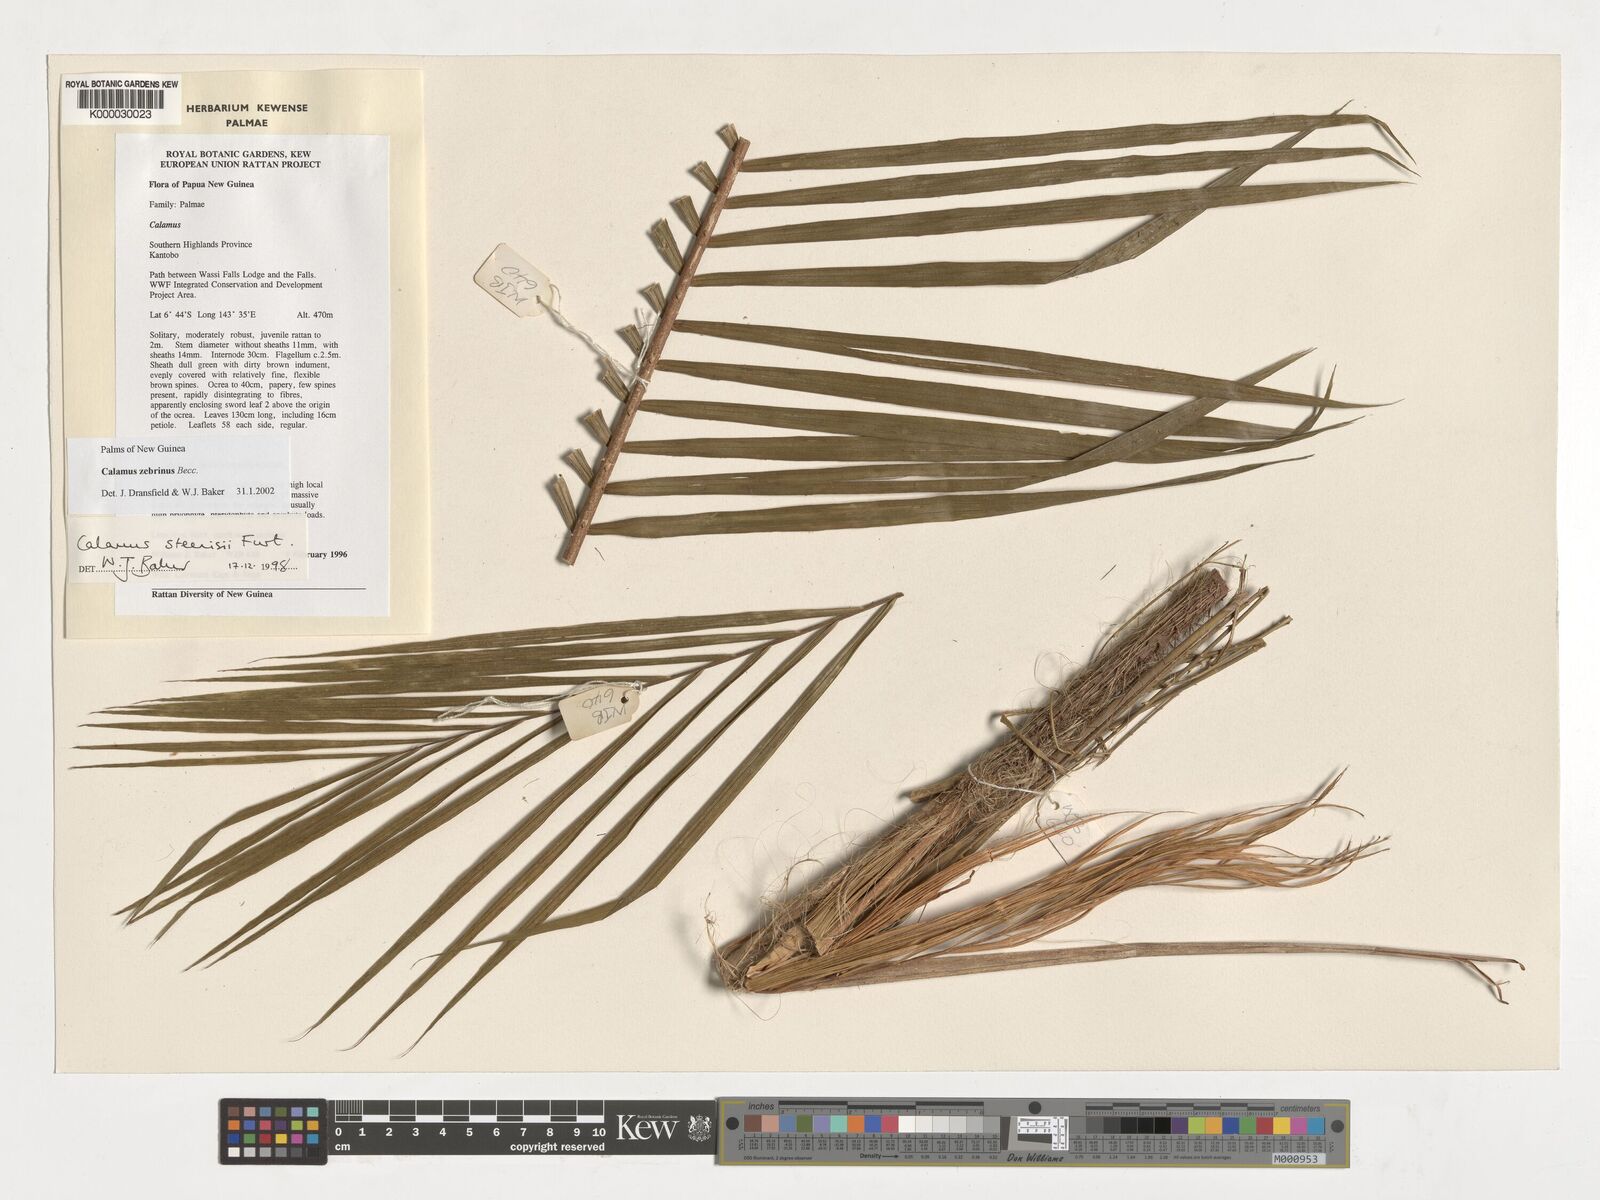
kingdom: Plantae
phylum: Tracheophyta
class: Liliopsida
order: Arecales
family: Arecaceae
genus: Calamus
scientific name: Calamus zebrinus
